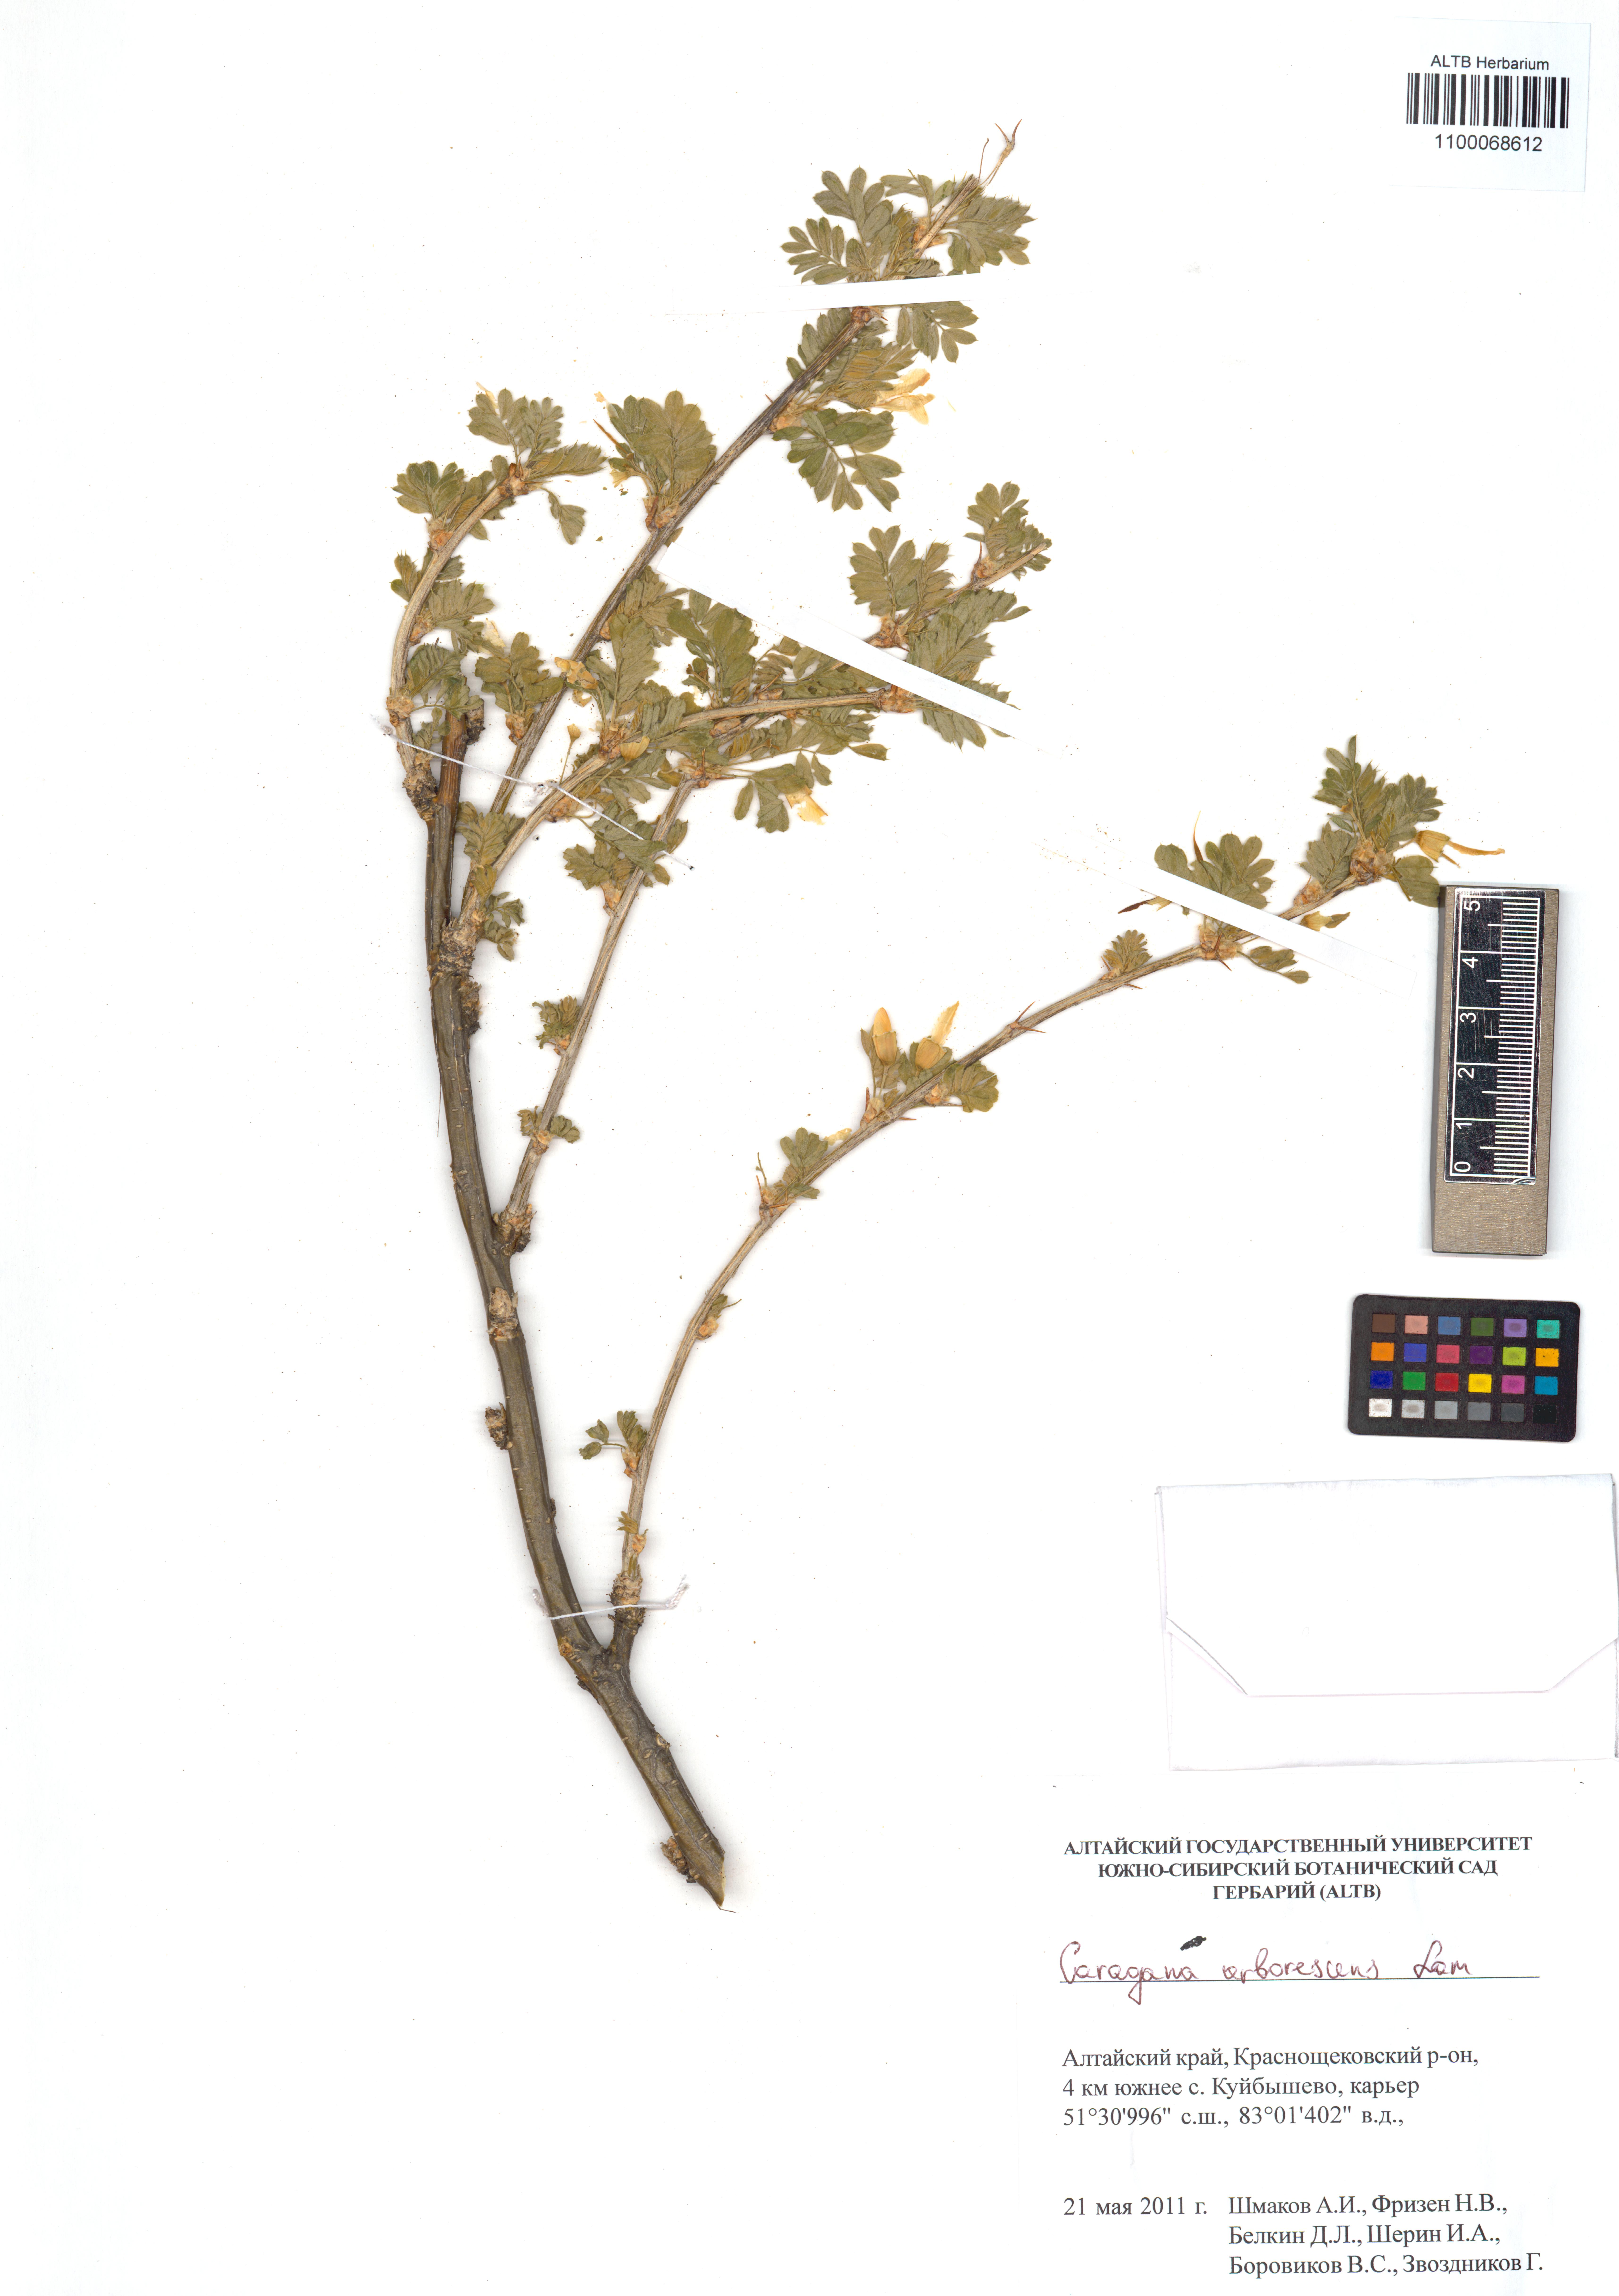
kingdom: Plantae
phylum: Tracheophyta
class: Magnoliopsida
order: Fabales
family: Fabaceae
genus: Caragana
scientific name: Caragana arborescens
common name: Siberian peashrub
